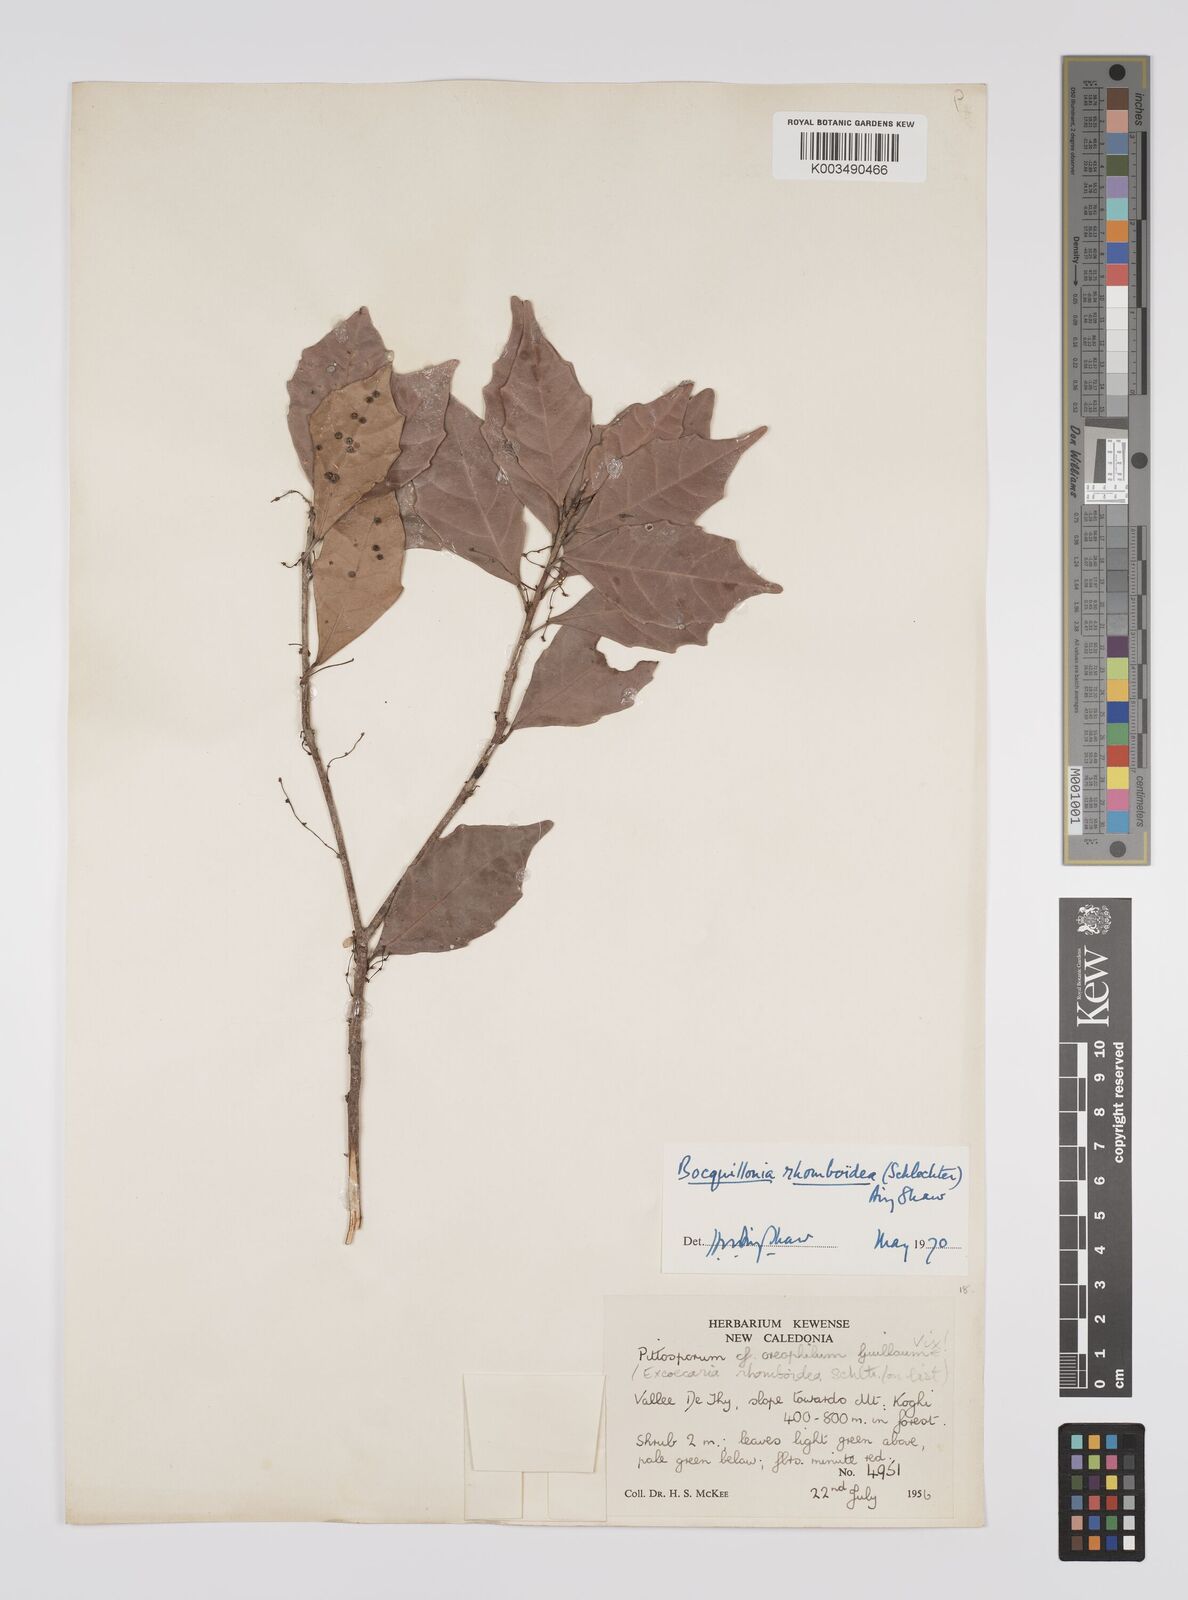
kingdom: Plantae
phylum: Tracheophyta
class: Magnoliopsida
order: Malpighiales
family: Euphorbiaceae
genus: Bocquillonia
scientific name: Bocquillonia rhomboidea
